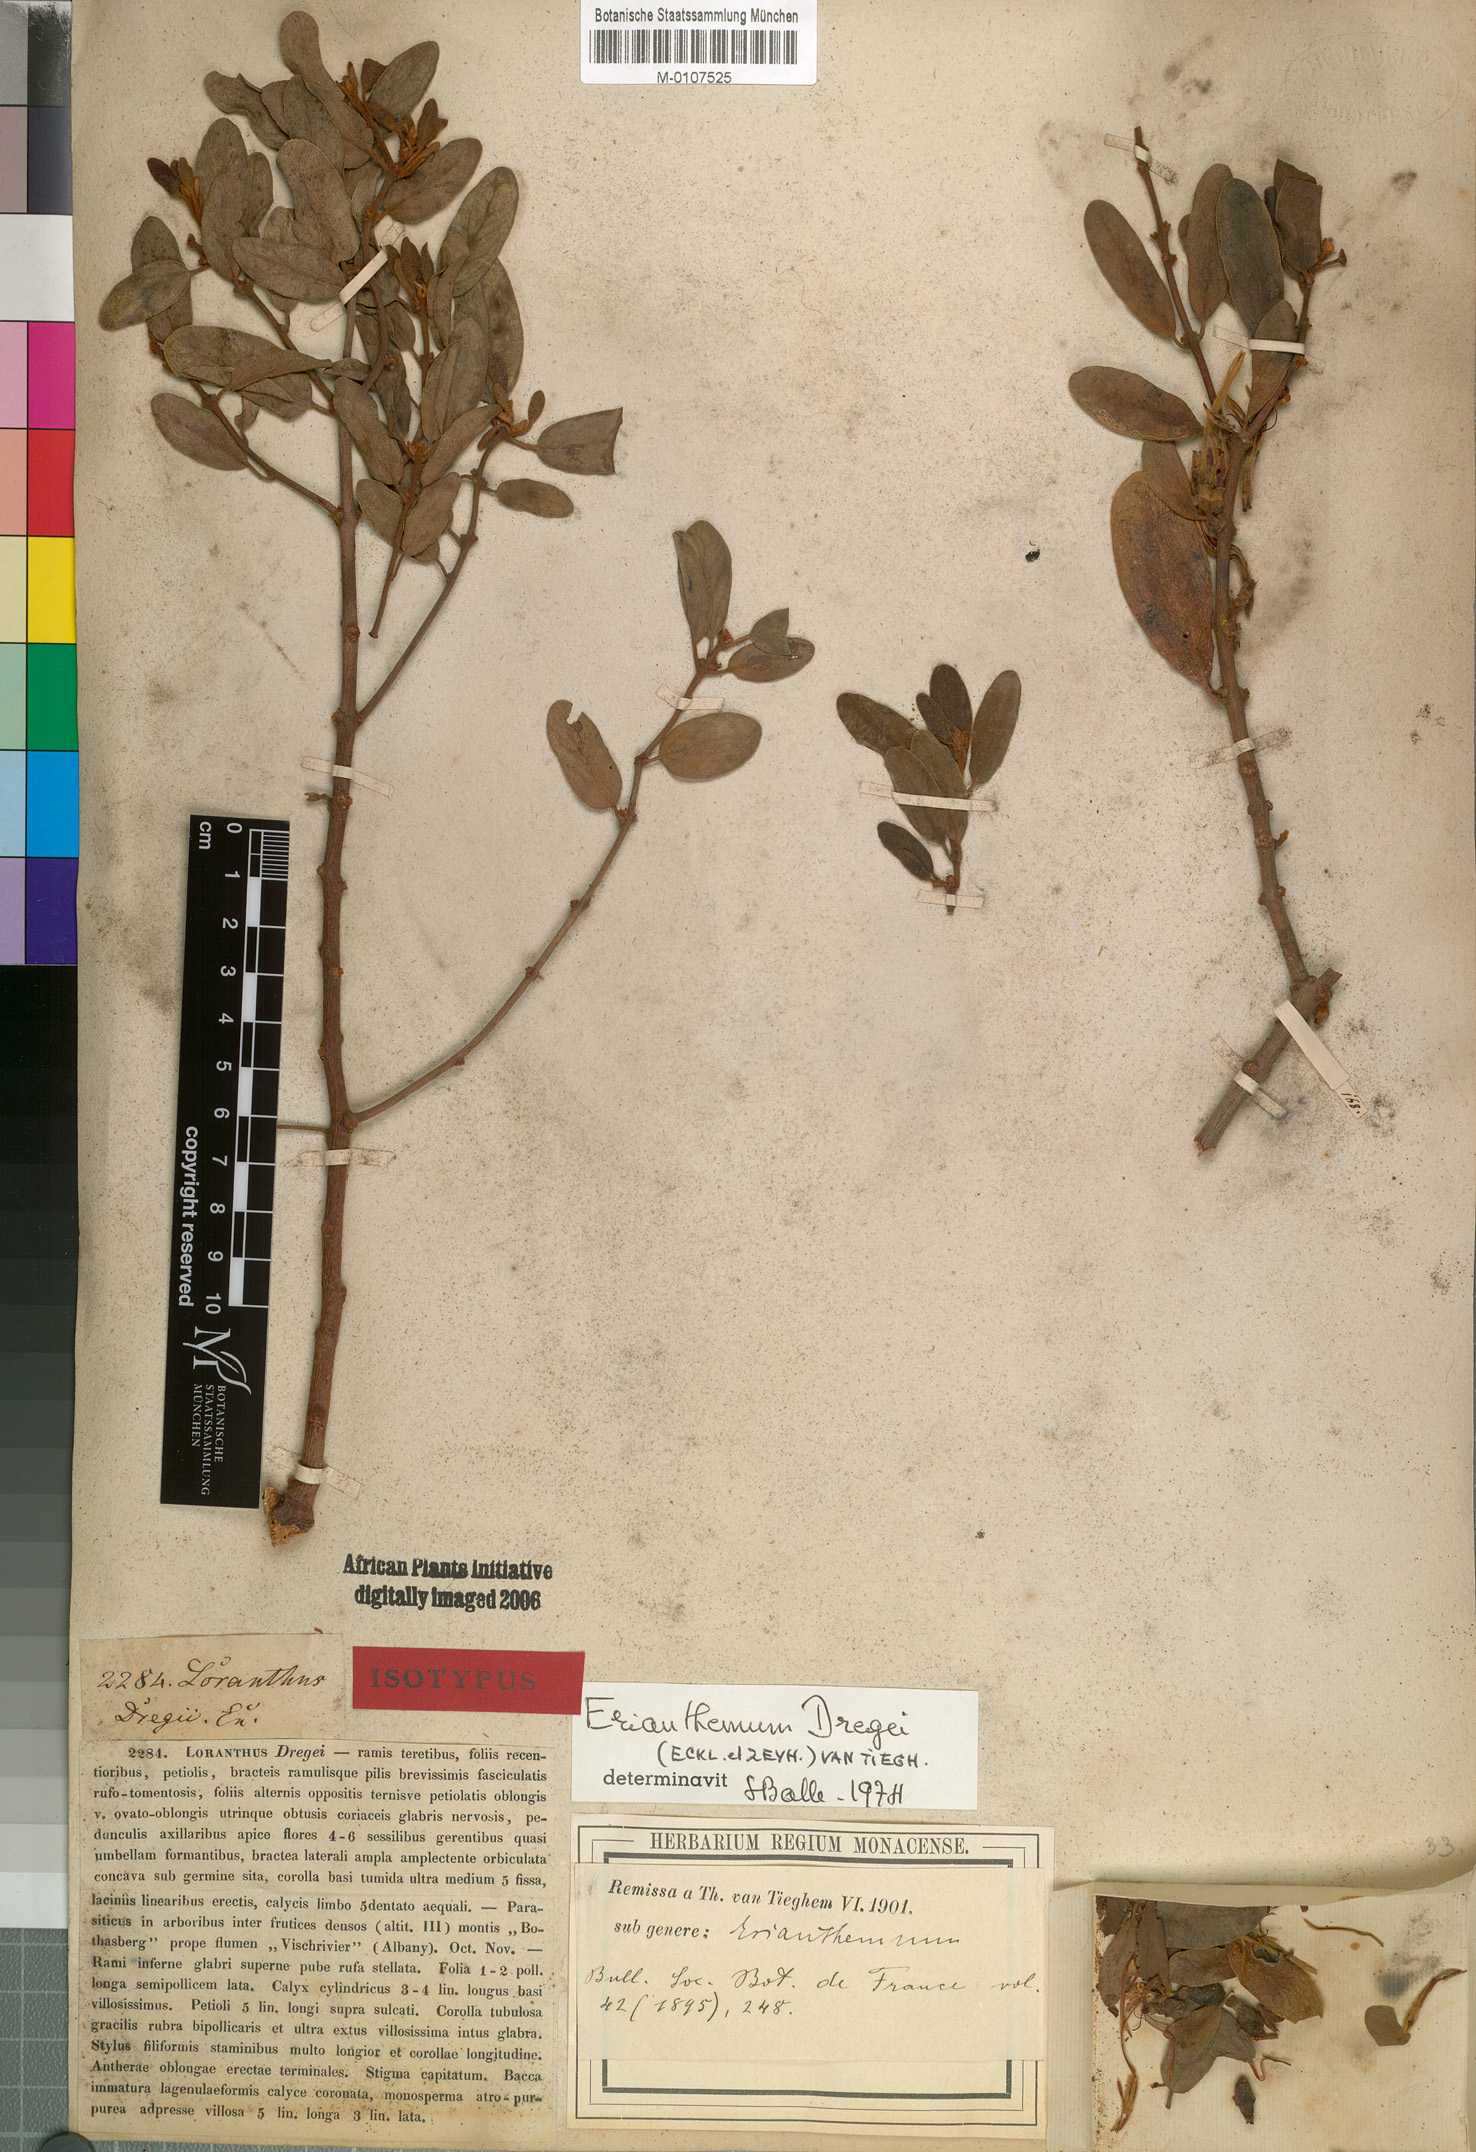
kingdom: Plantae
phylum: Tracheophyta
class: Magnoliopsida
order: Santalales
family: Loranthaceae
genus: Erianthemum
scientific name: Erianthemum dregei
